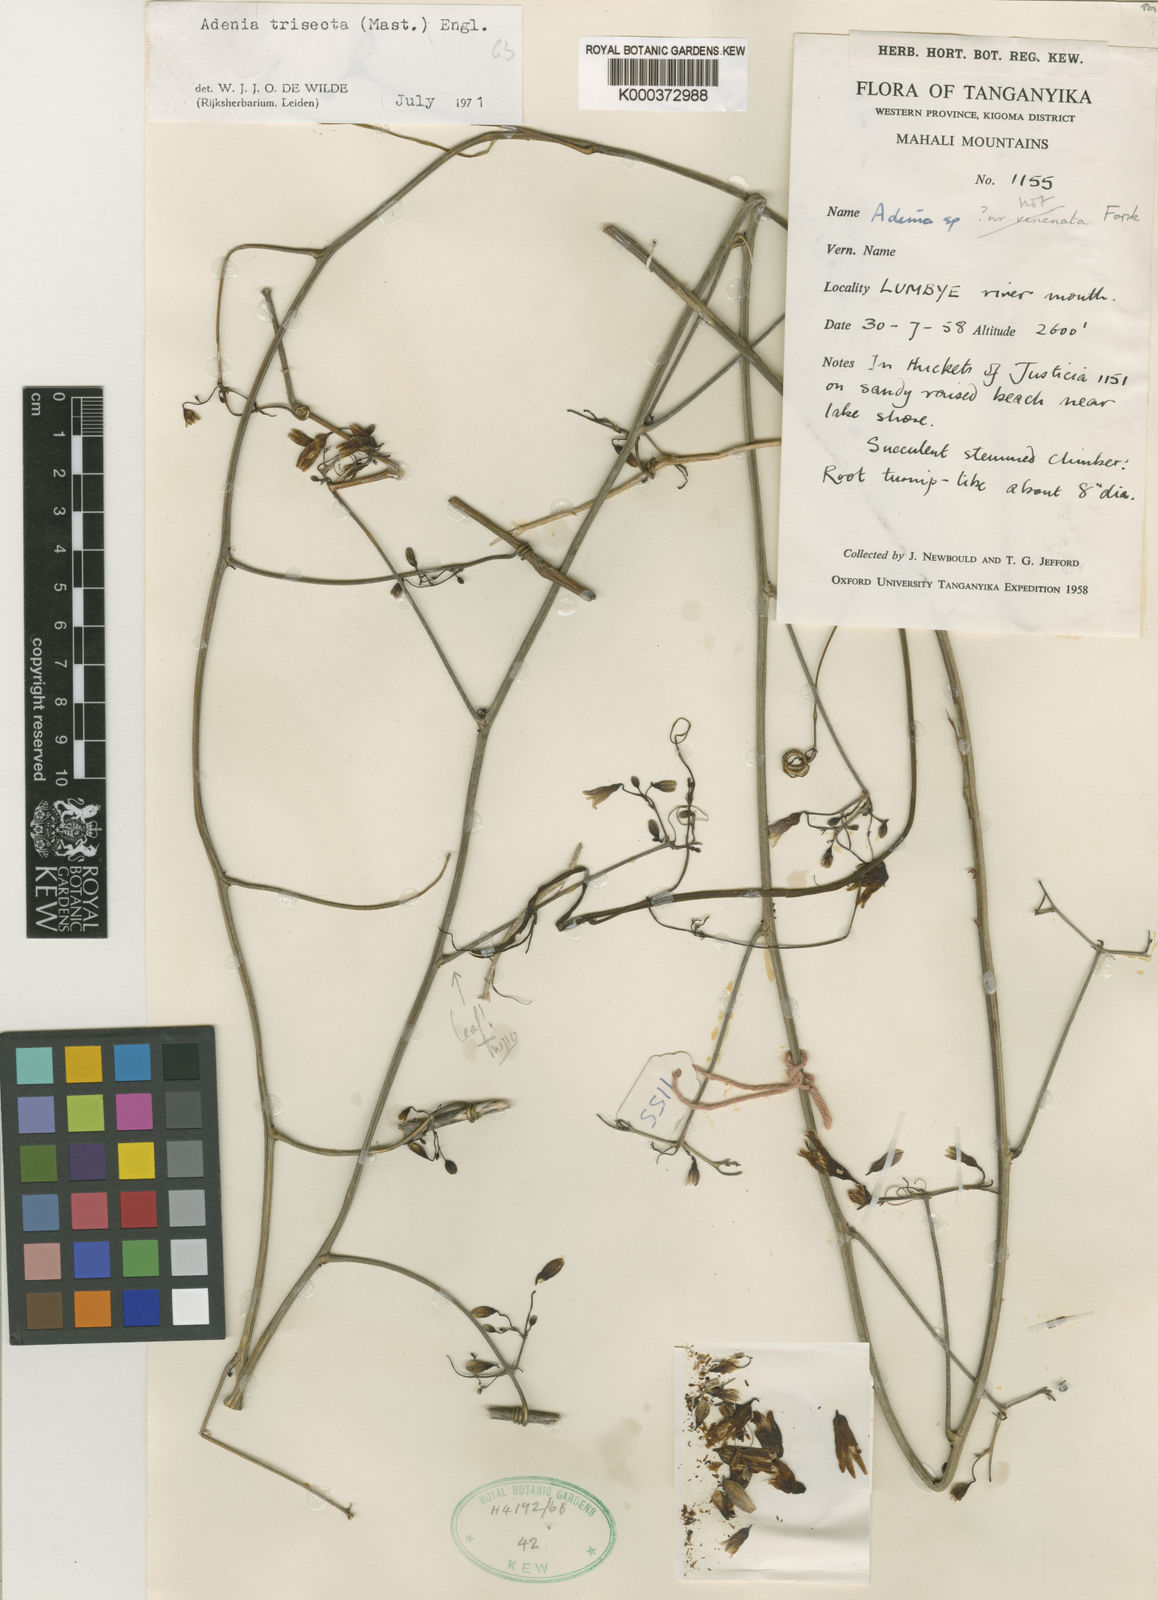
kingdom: Plantae
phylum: Tracheophyta
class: Magnoliopsida
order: Malpighiales
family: Passifloraceae
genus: Adenia
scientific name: Adenia trisecta
